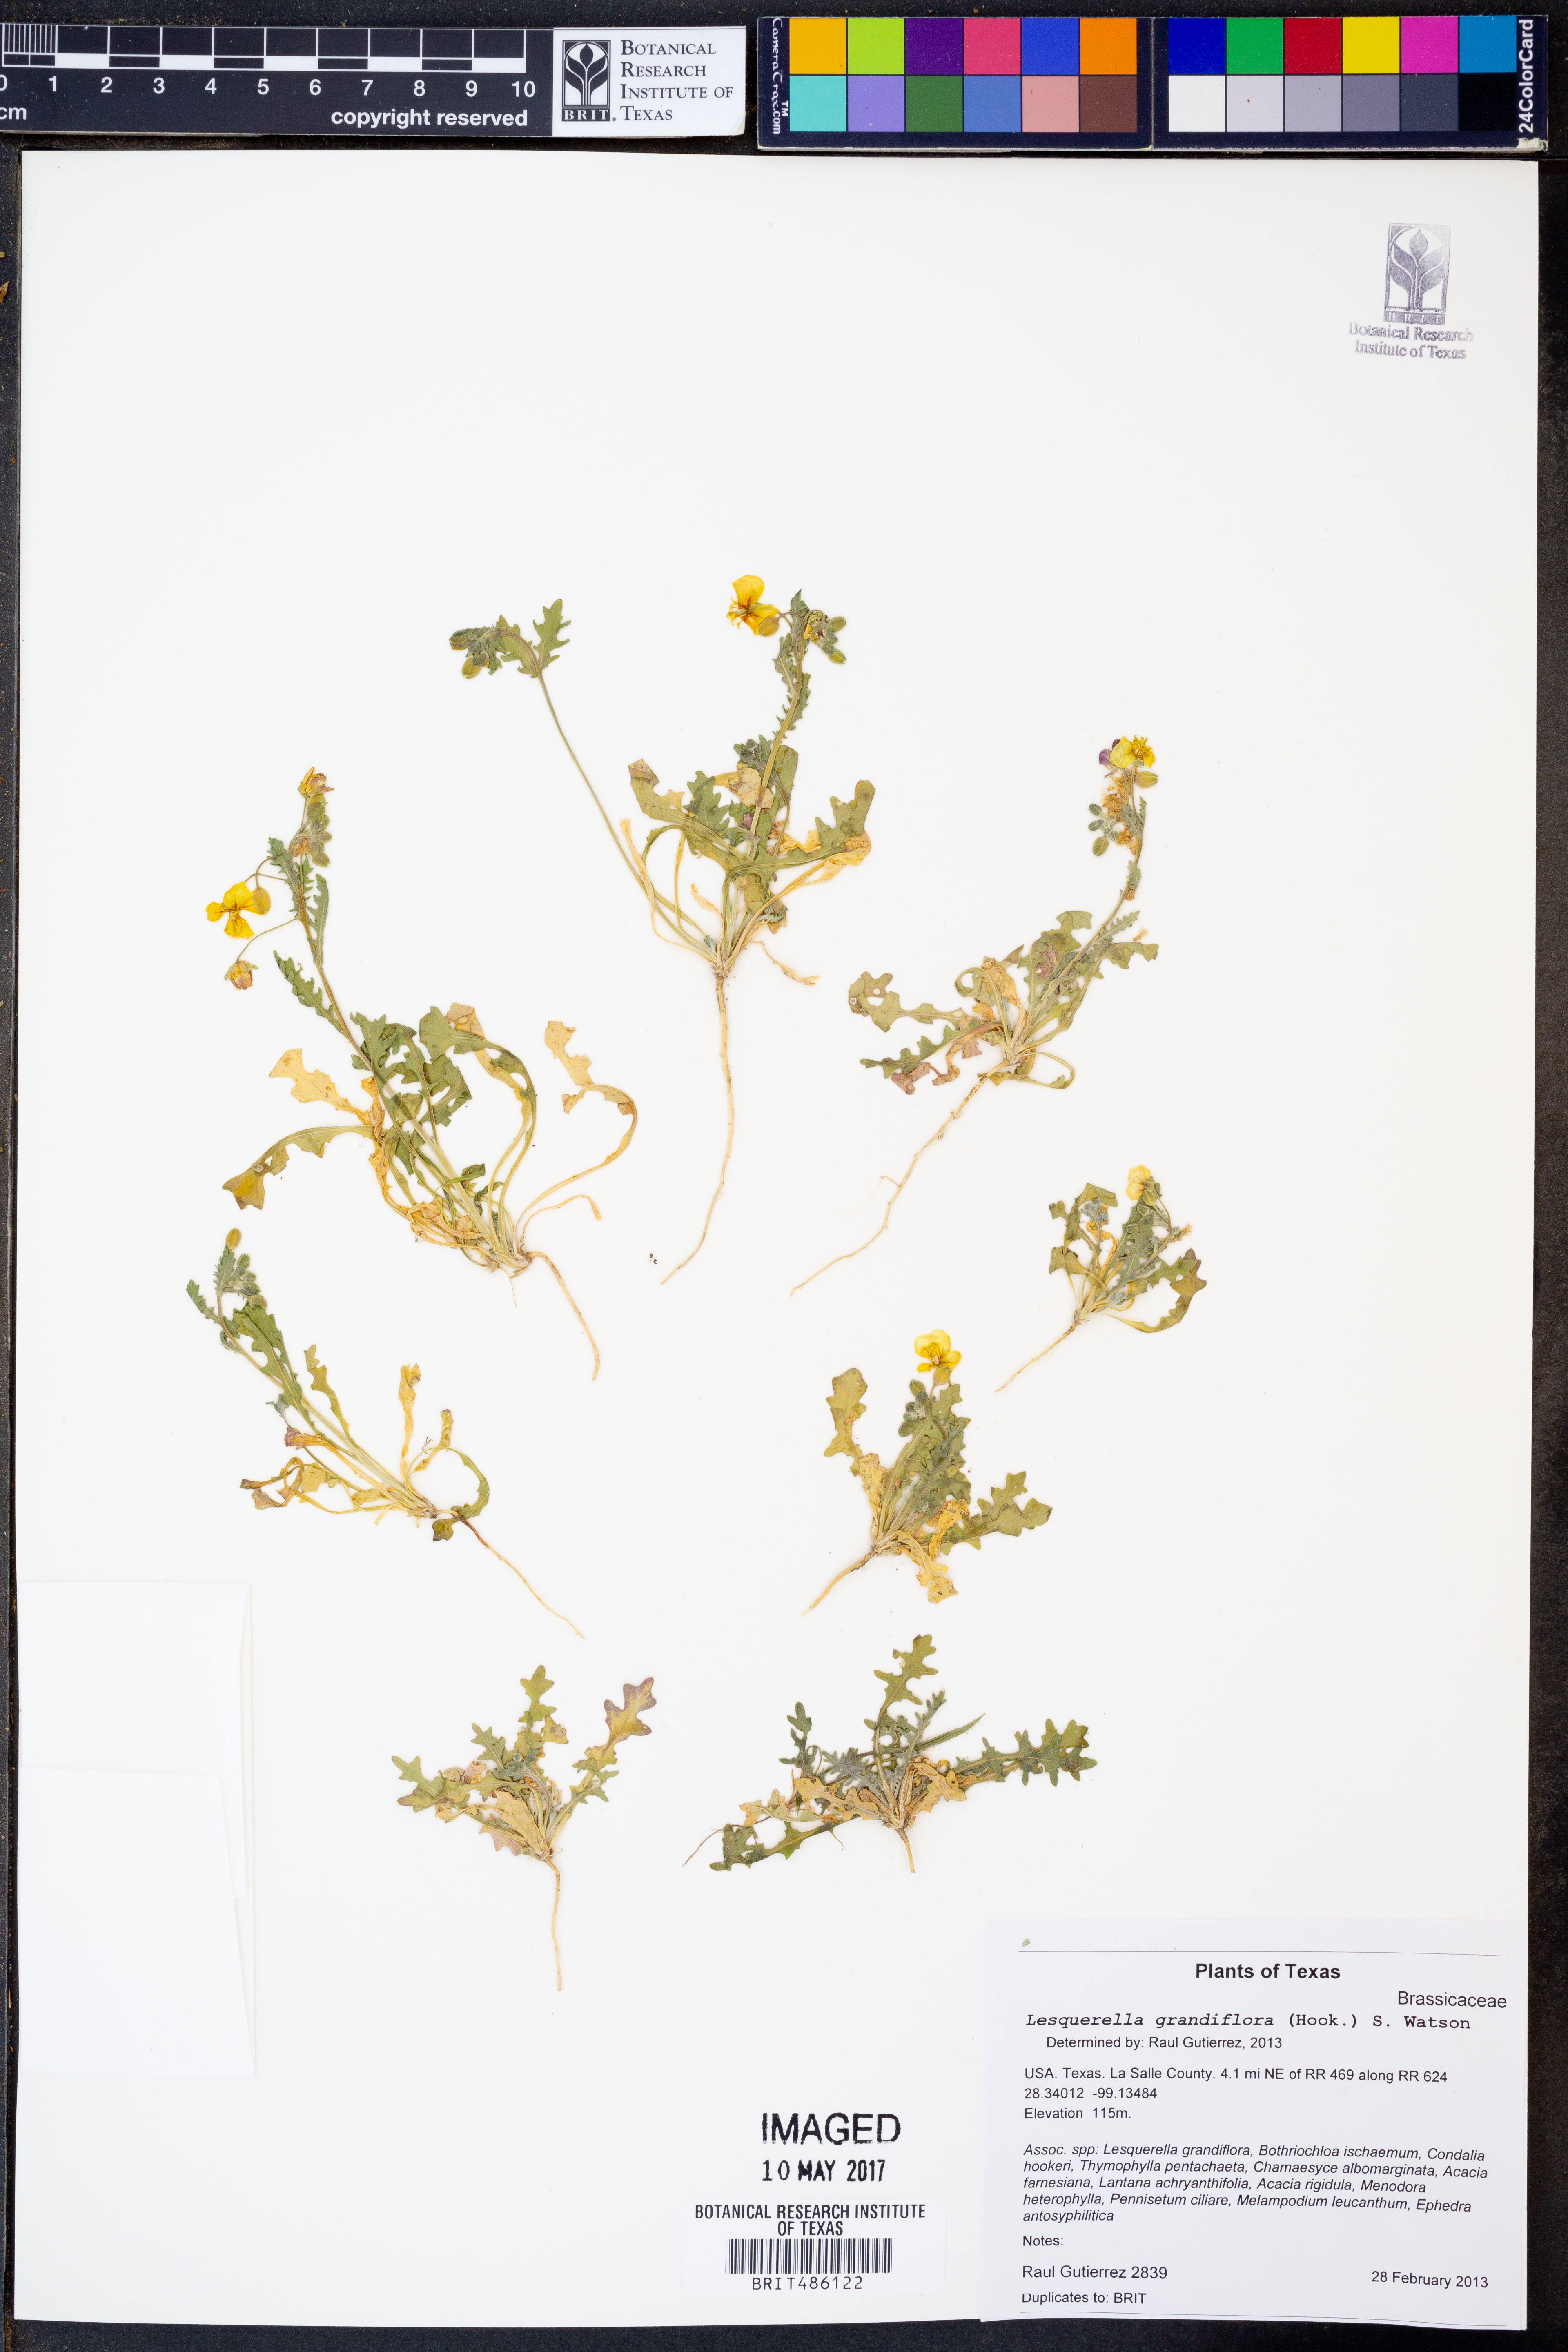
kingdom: Plantae
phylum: Tracheophyta
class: Magnoliopsida
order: Brassicales
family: Brassicaceae
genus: Paysonia
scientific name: Paysonia grandiflora
